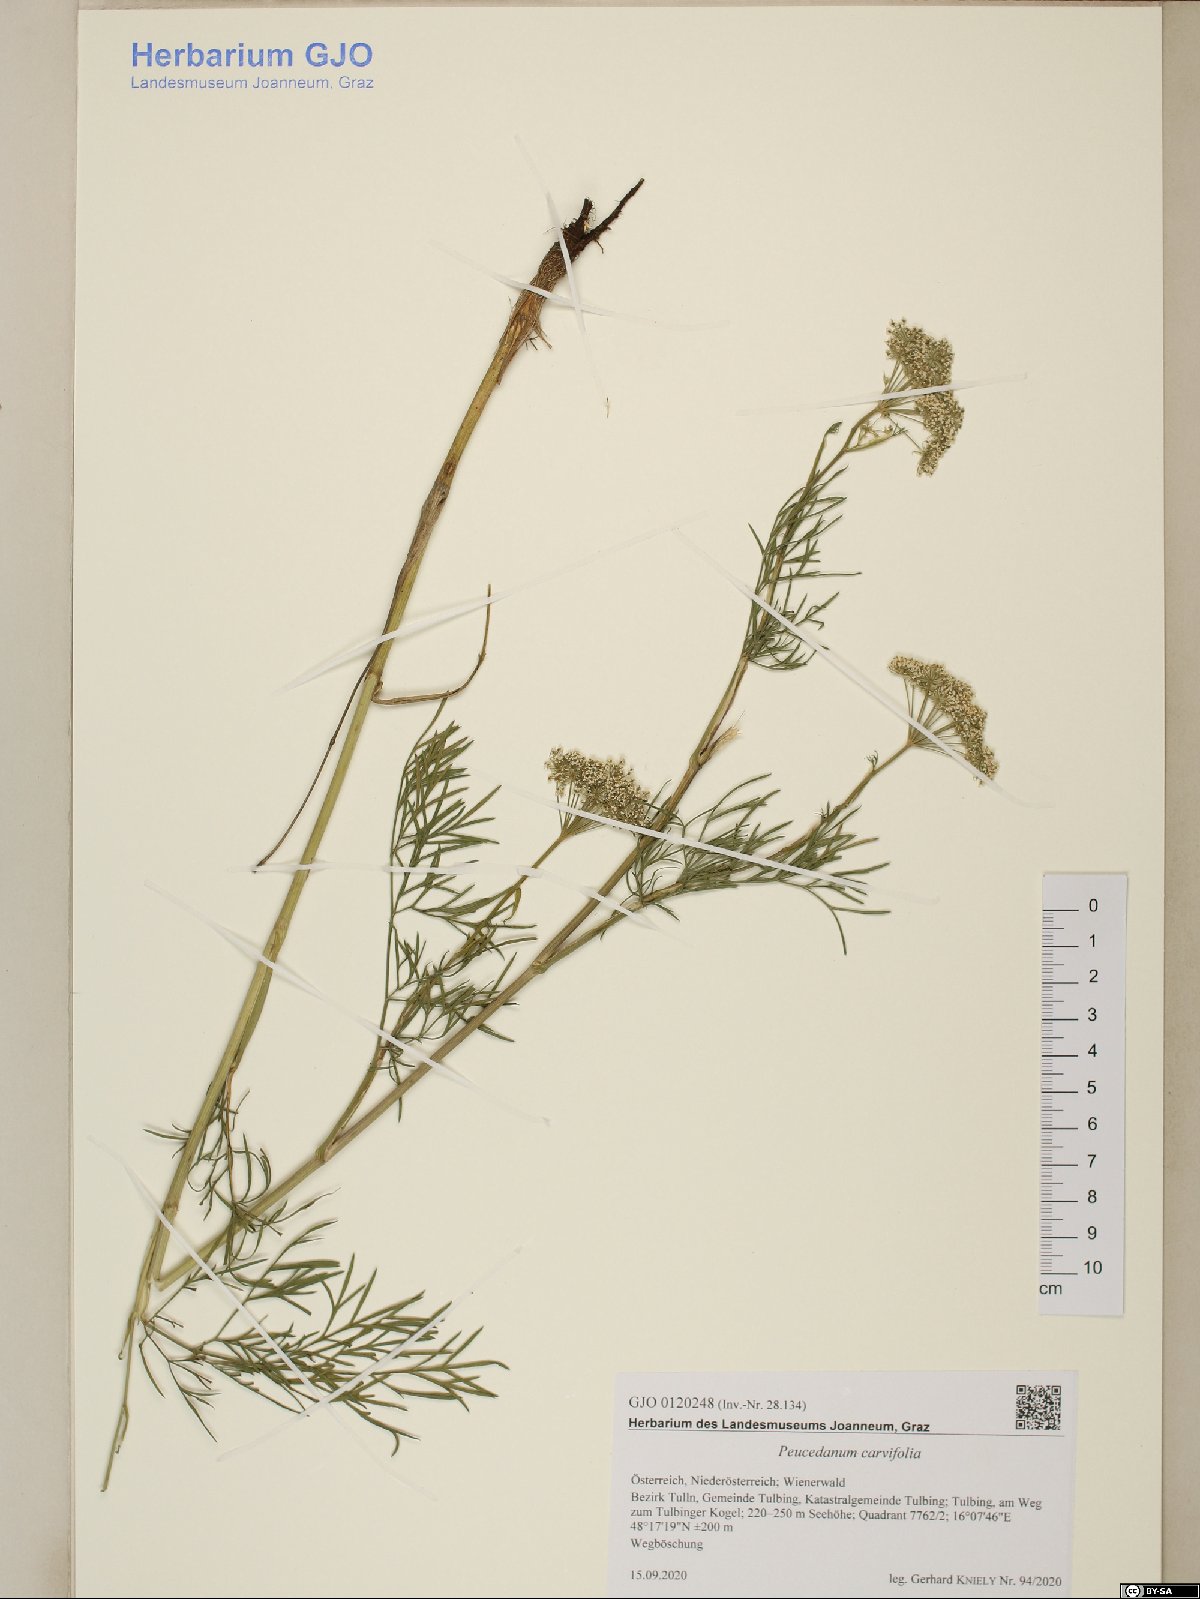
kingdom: Plantae
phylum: Tracheophyta
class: Magnoliopsida
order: Apiales
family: Apiaceae
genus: Dichoropetalum
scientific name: Dichoropetalum carvifolia
